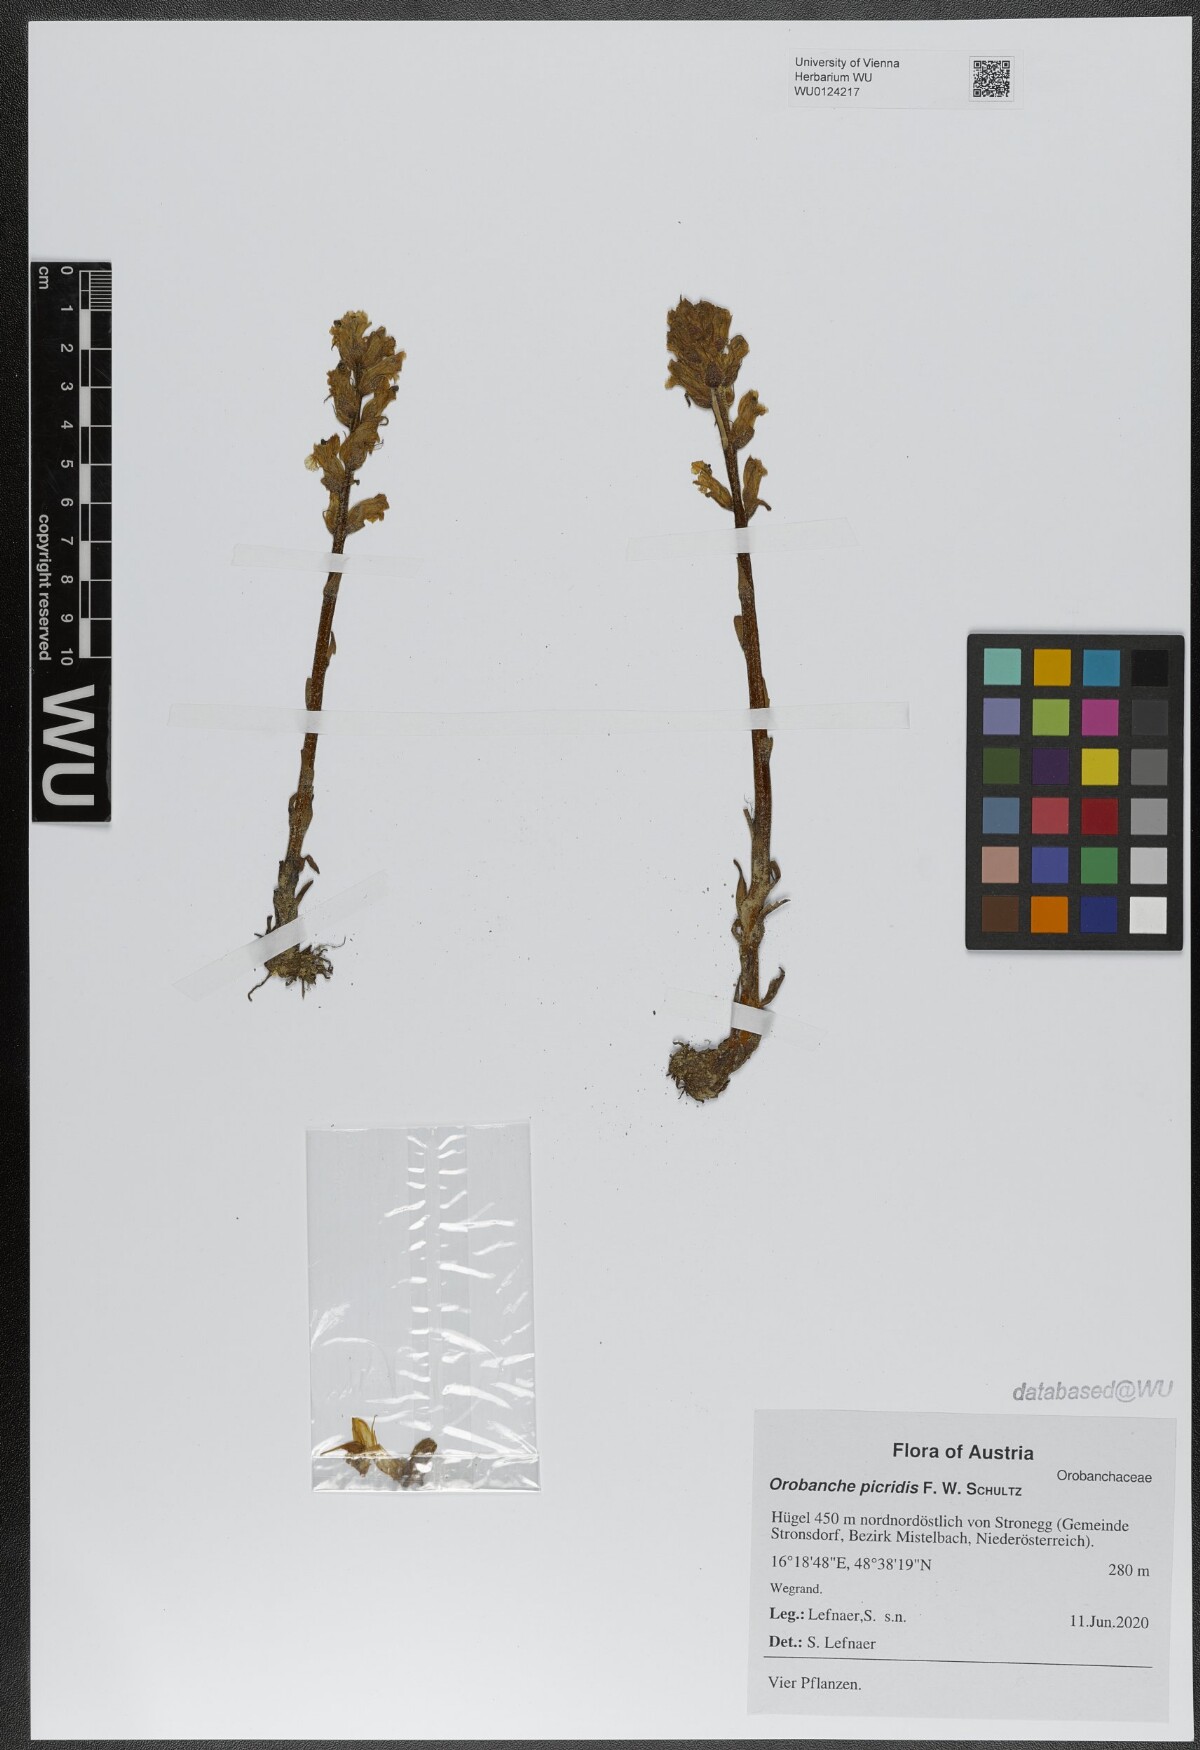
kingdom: Plantae
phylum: Tracheophyta
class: Magnoliopsida
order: Lamiales
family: Orobanchaceae
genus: Orobanche
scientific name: Orobanche picridis
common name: Oxtongue broomrape
